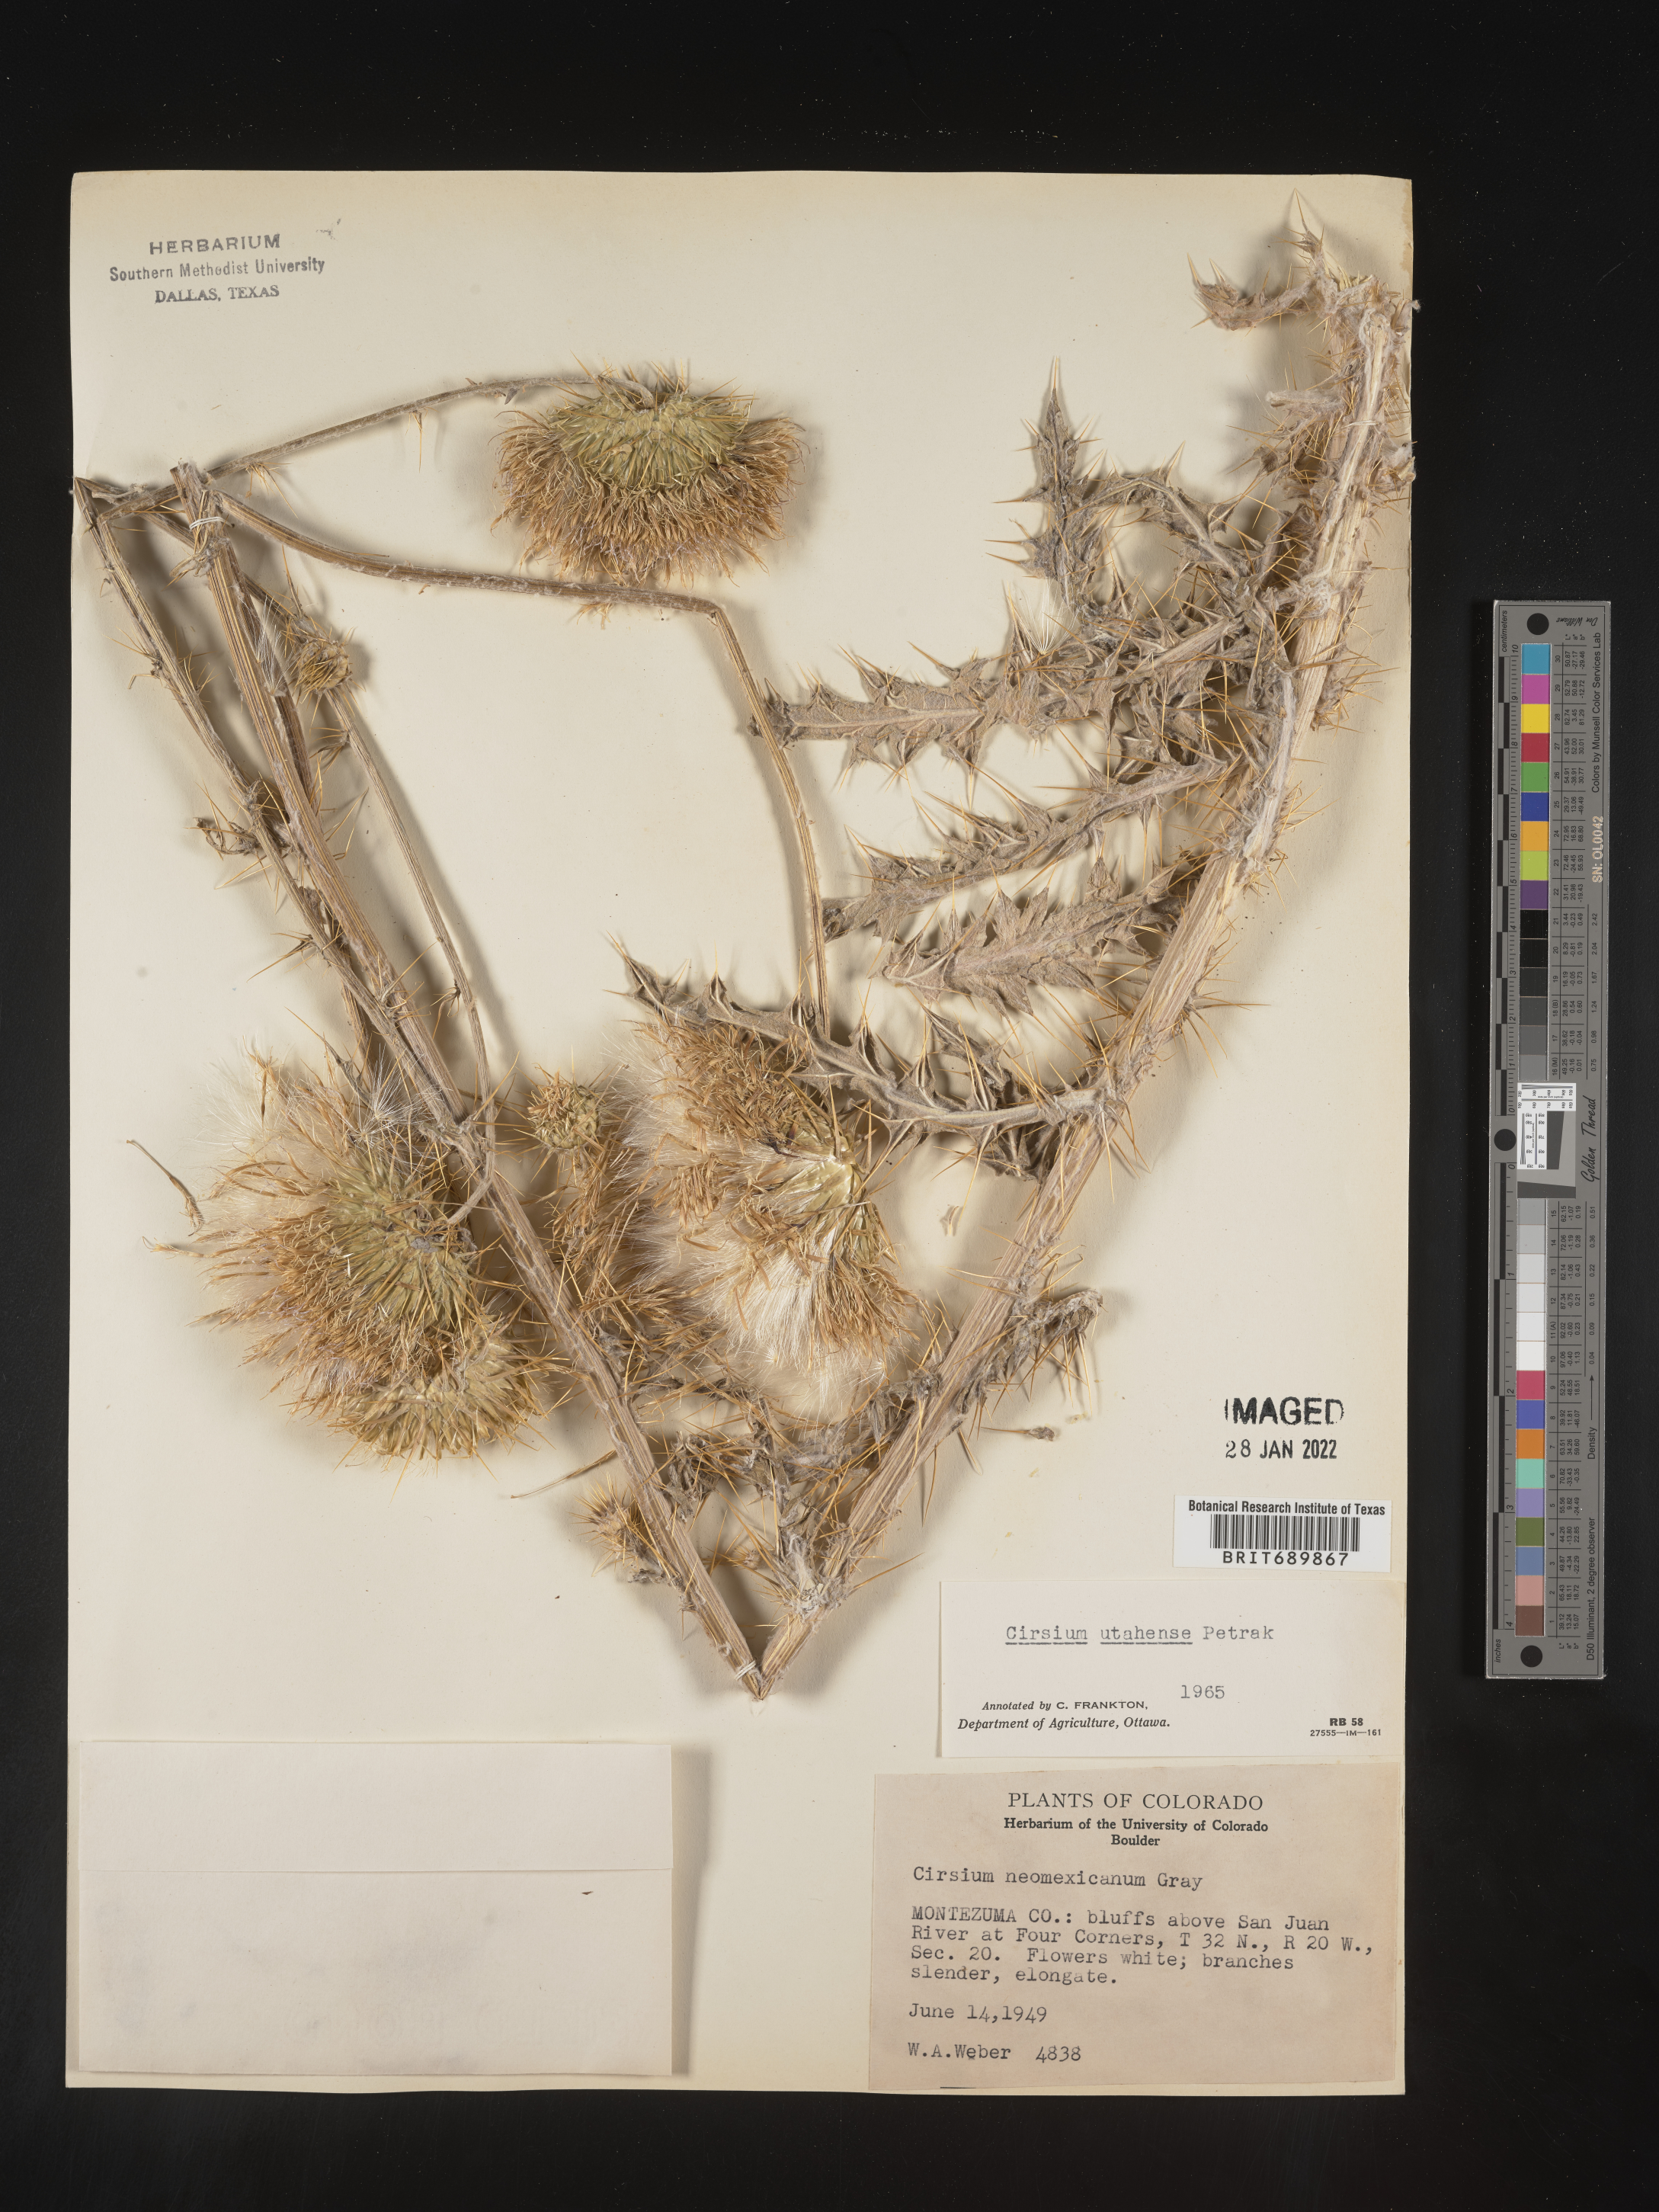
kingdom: Plantae
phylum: Tracheophyta
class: Magnoliopsida
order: Asterales
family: Asteraceae
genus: Cirsium
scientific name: Cirsium
